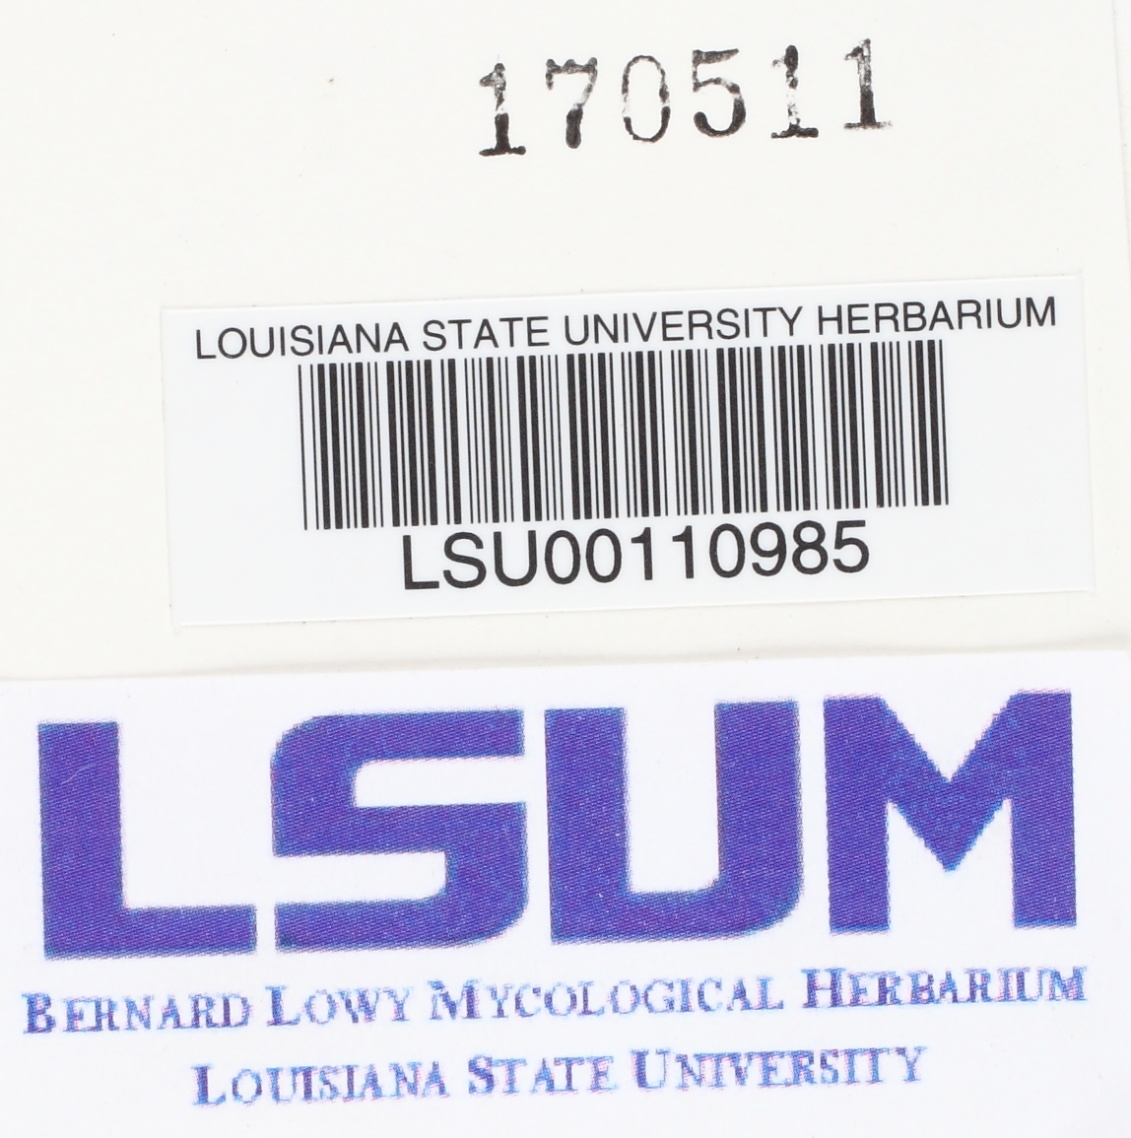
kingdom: Fungi
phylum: Basidiomycota
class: Agaricomycetes
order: Auriculariales
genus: Basidiodendron
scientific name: Basidiodendron eyrei
